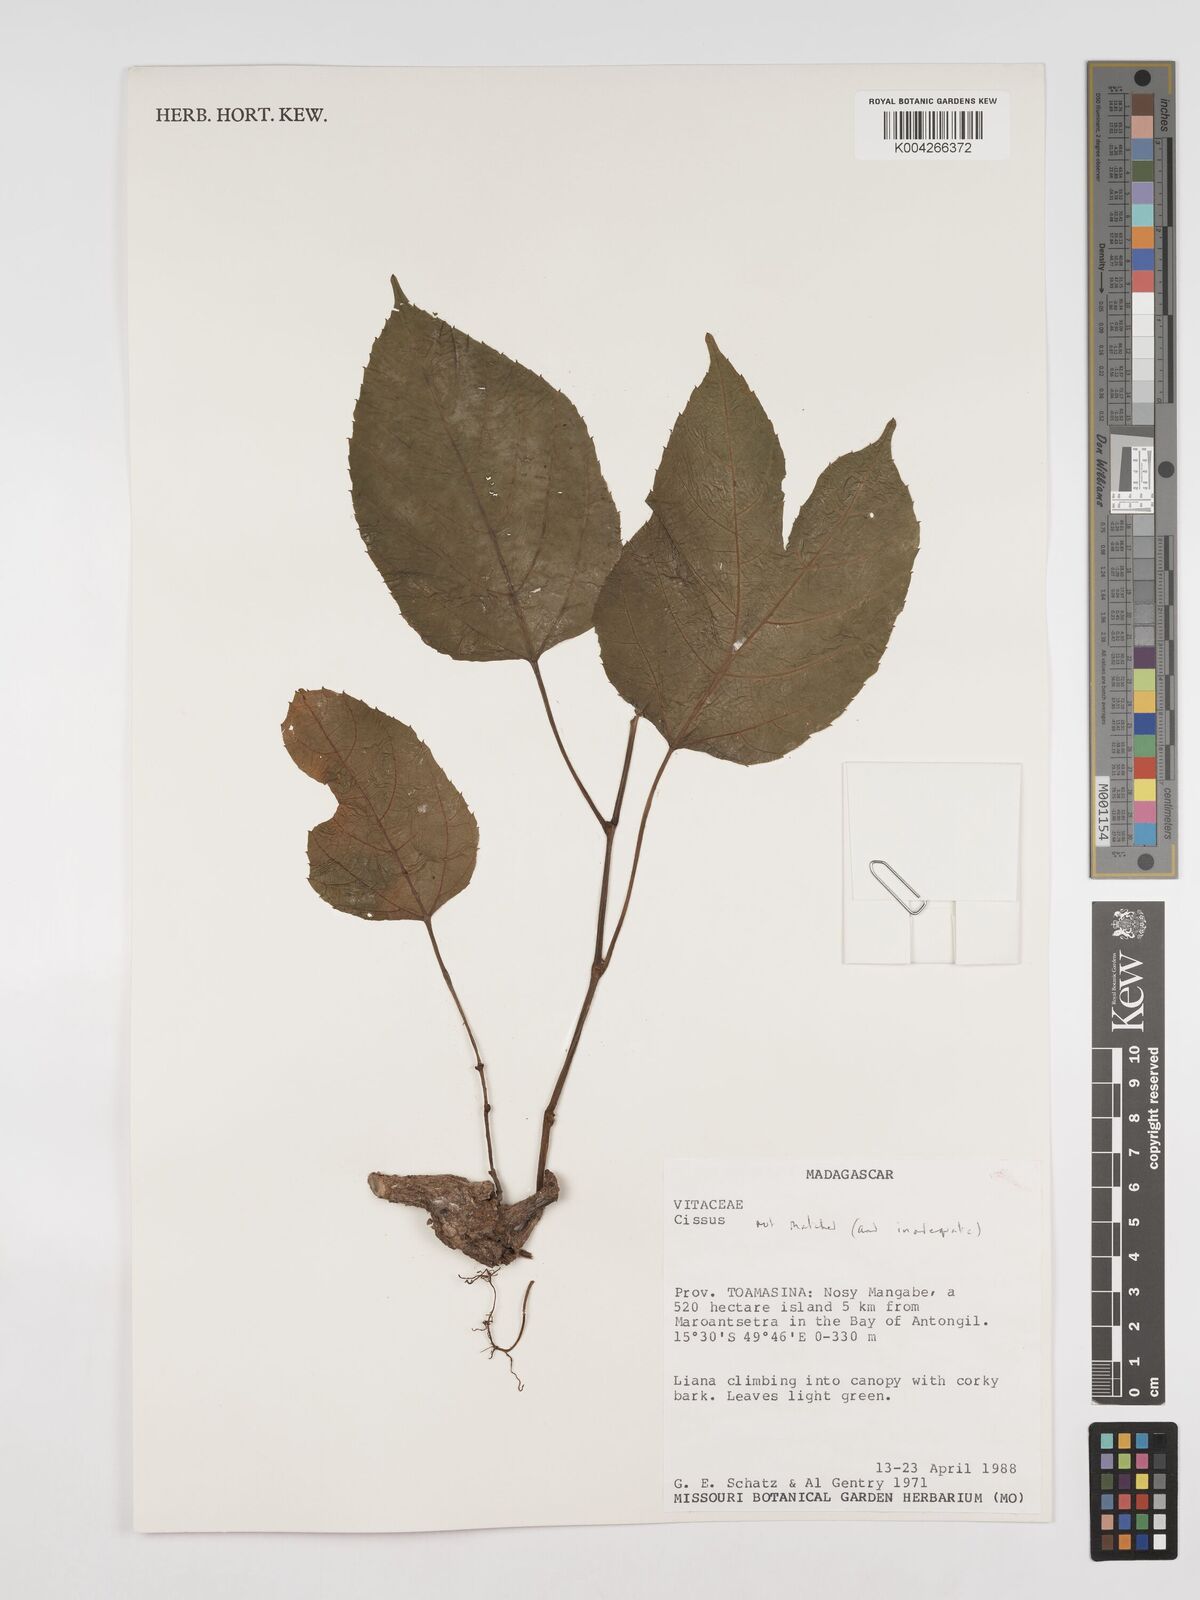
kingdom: Plantae
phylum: Tracheophyta
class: Magnoliopsida
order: Vitales
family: Vitaceae
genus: Cissus
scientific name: Cissus
